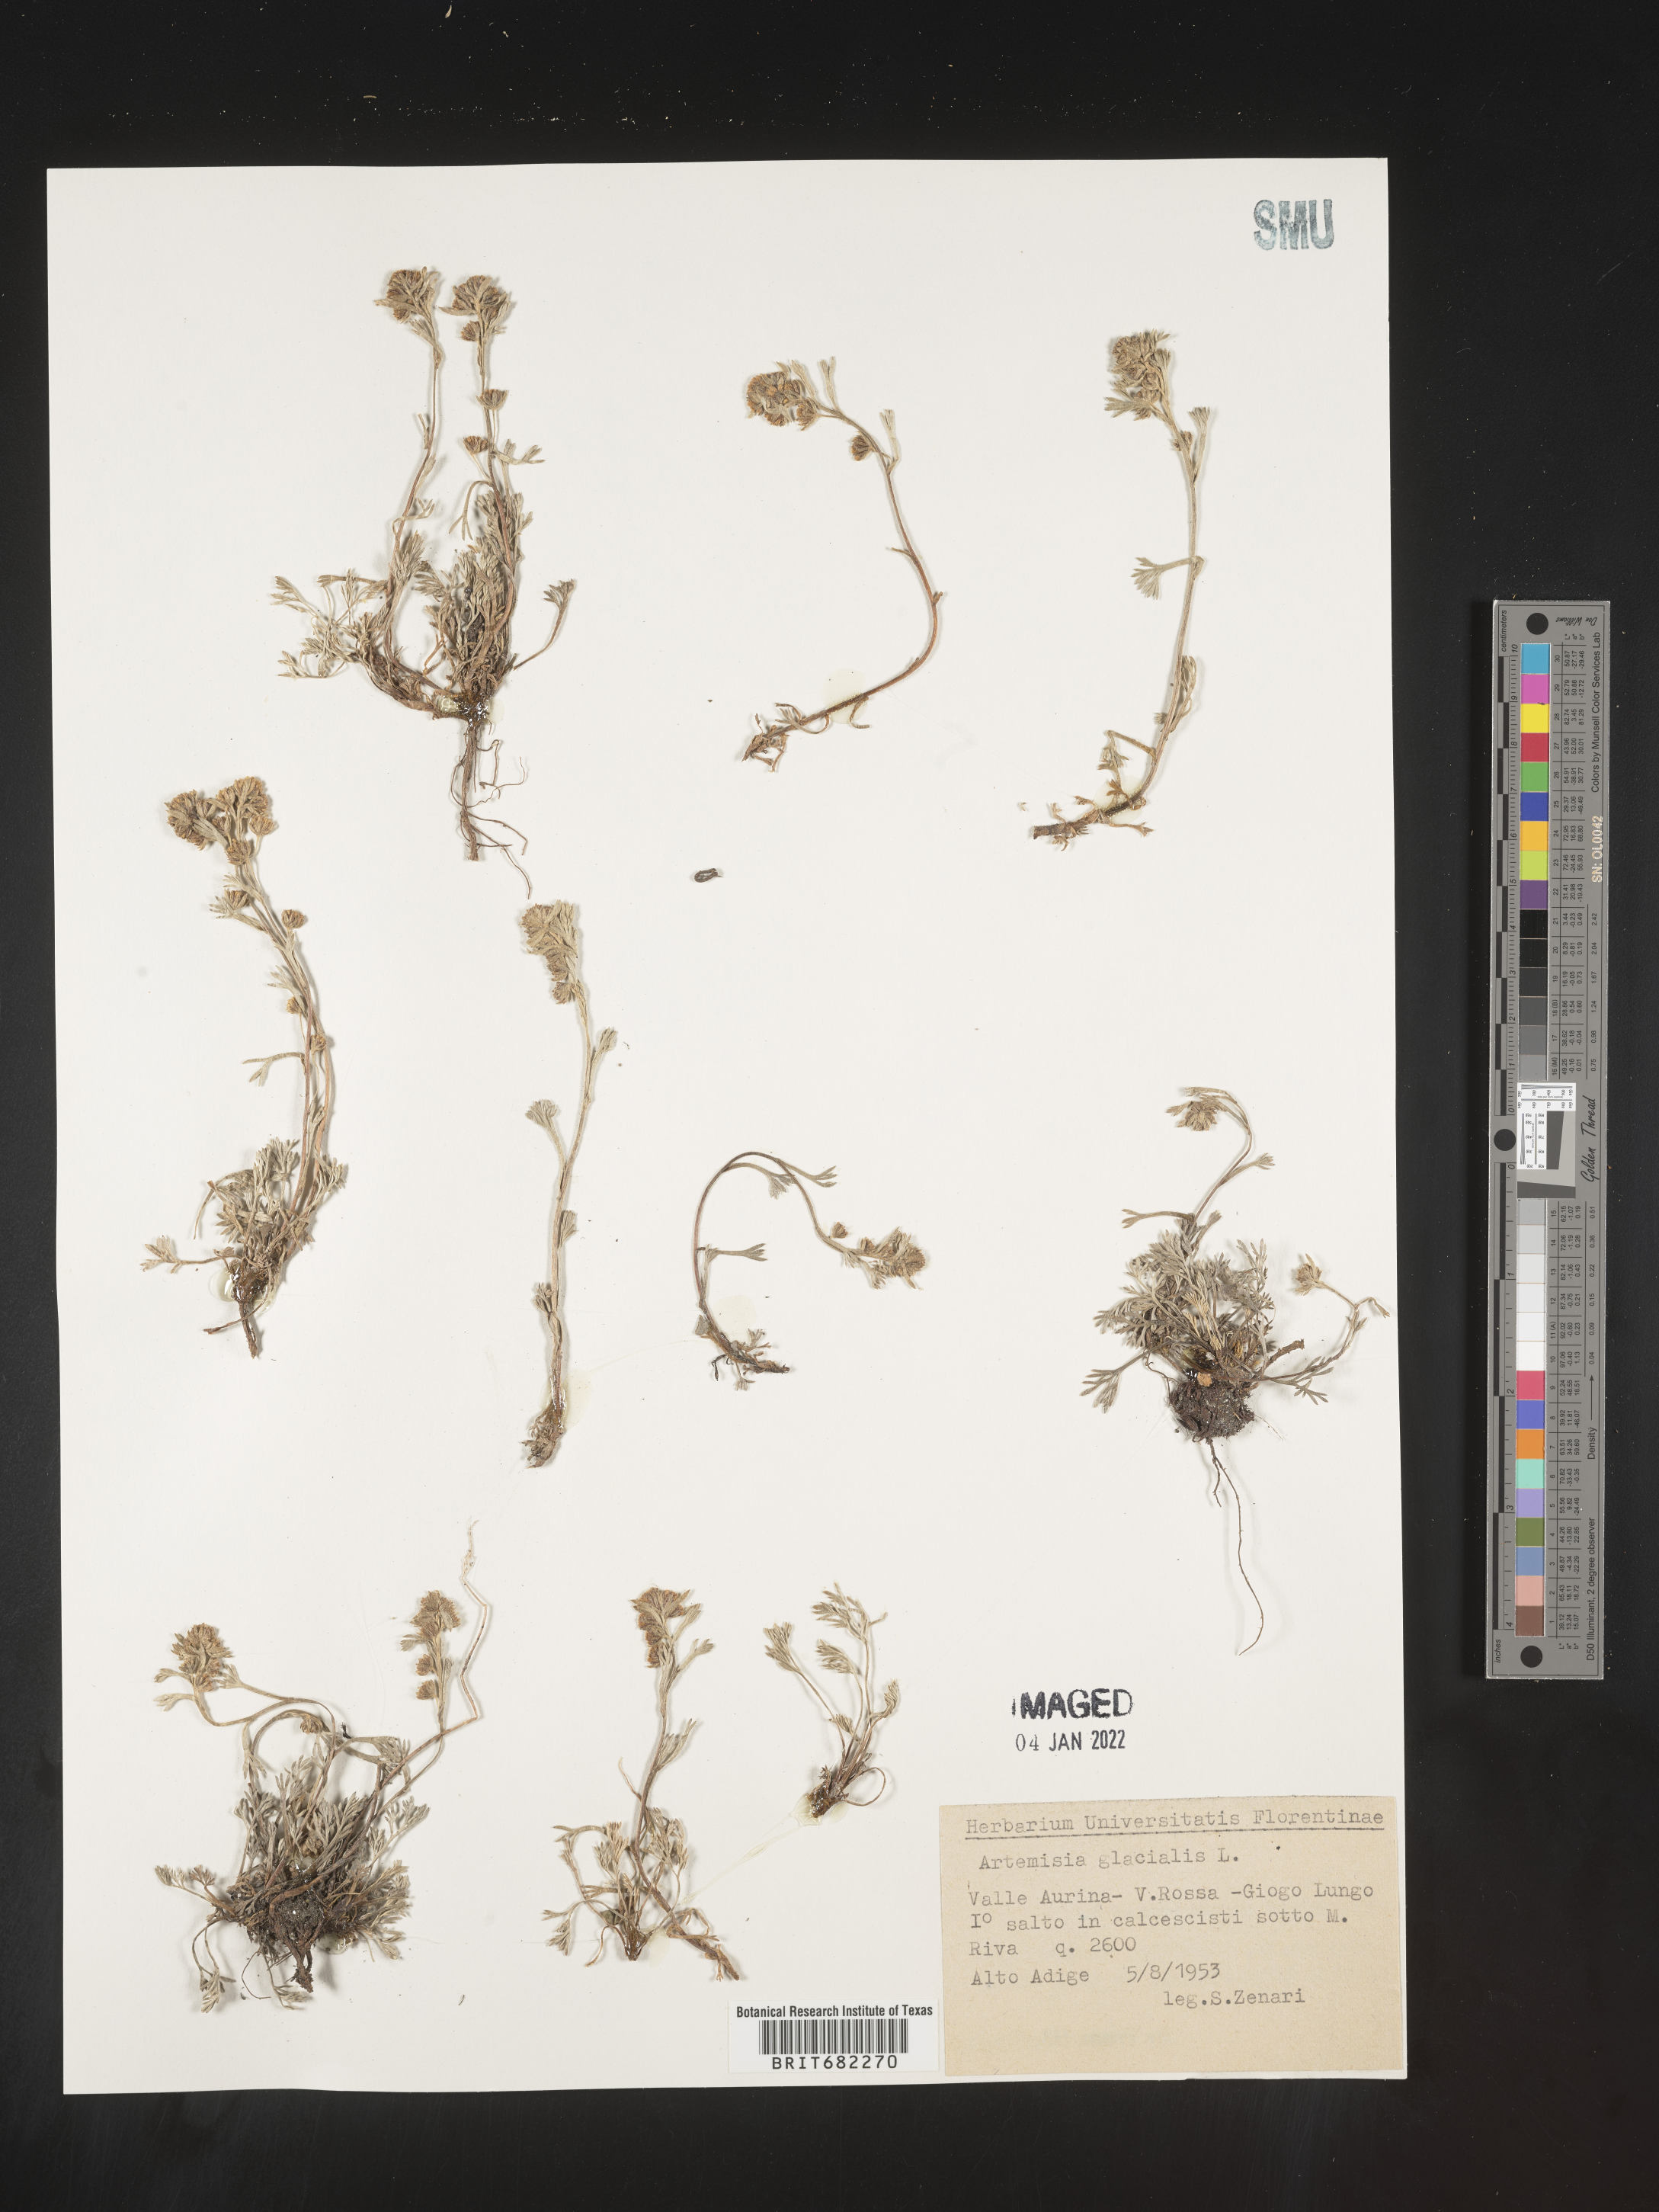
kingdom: Plantae
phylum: Tracheophyta
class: Magnoliopsida
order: Asterales
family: Asteraceae
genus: Artemisia
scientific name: Artemisia
